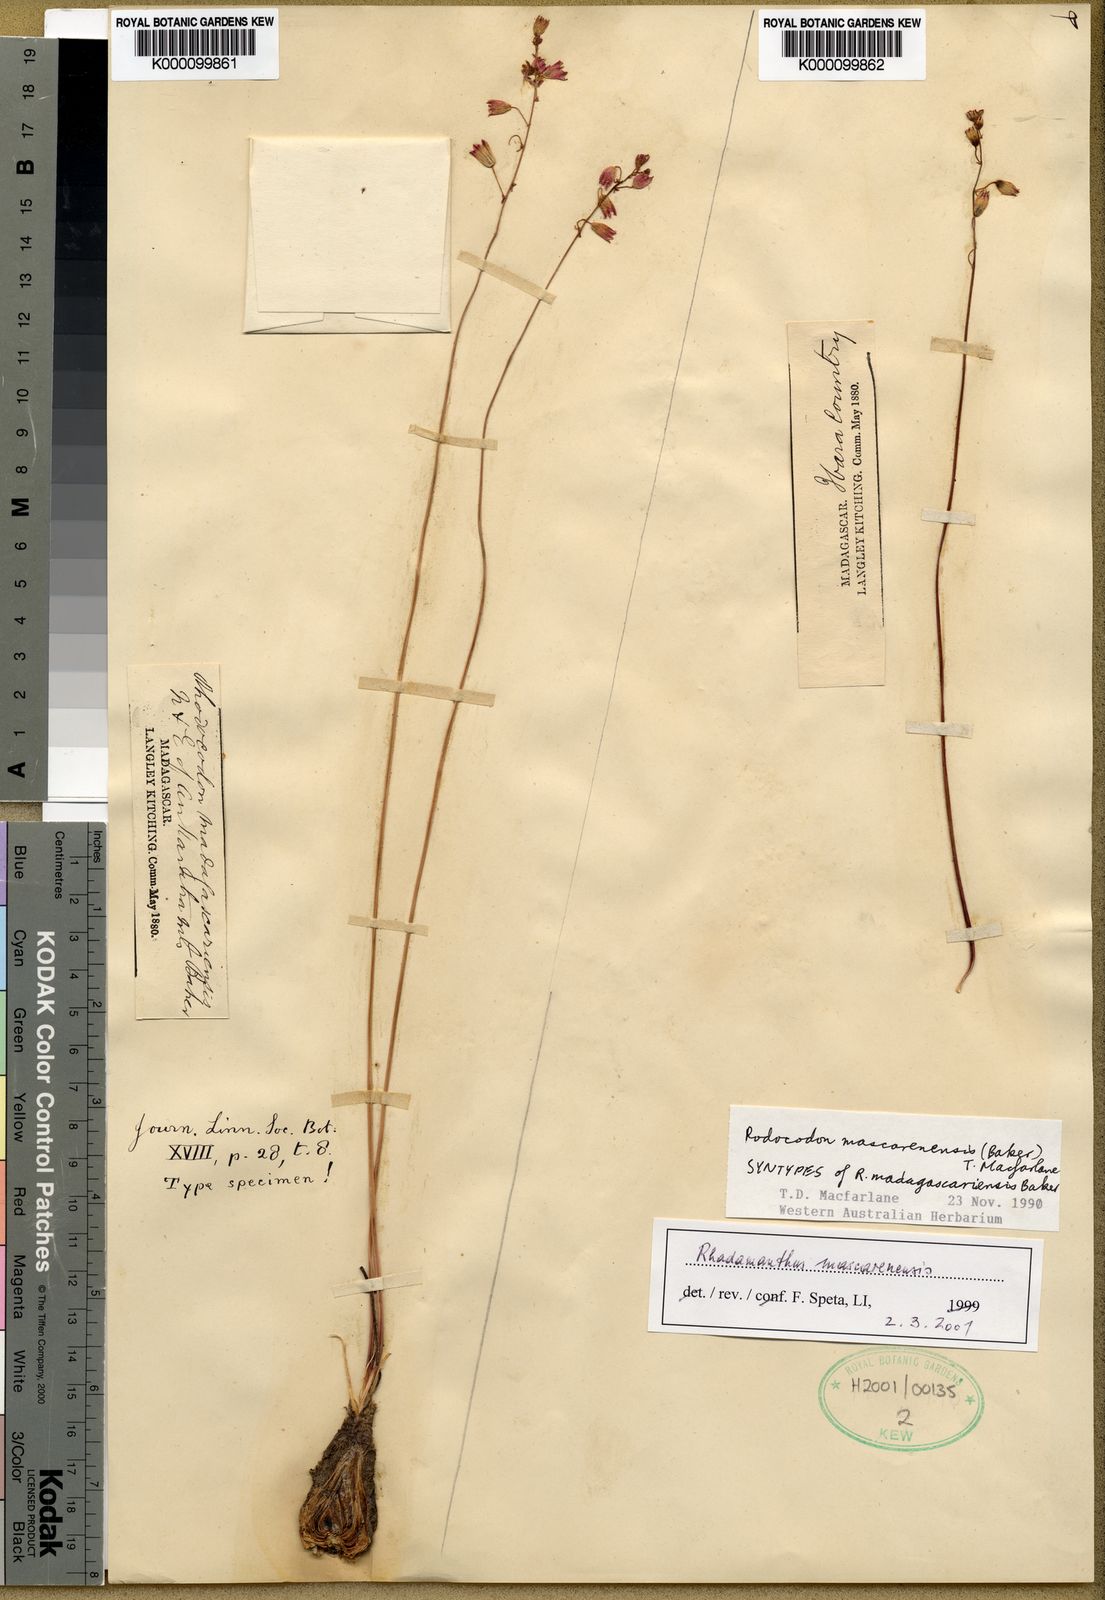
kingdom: Plantae
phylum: Tracheophyta
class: Liliopsida
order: Asparagales
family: Asparagaceae
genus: Drimia
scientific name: Drimia
